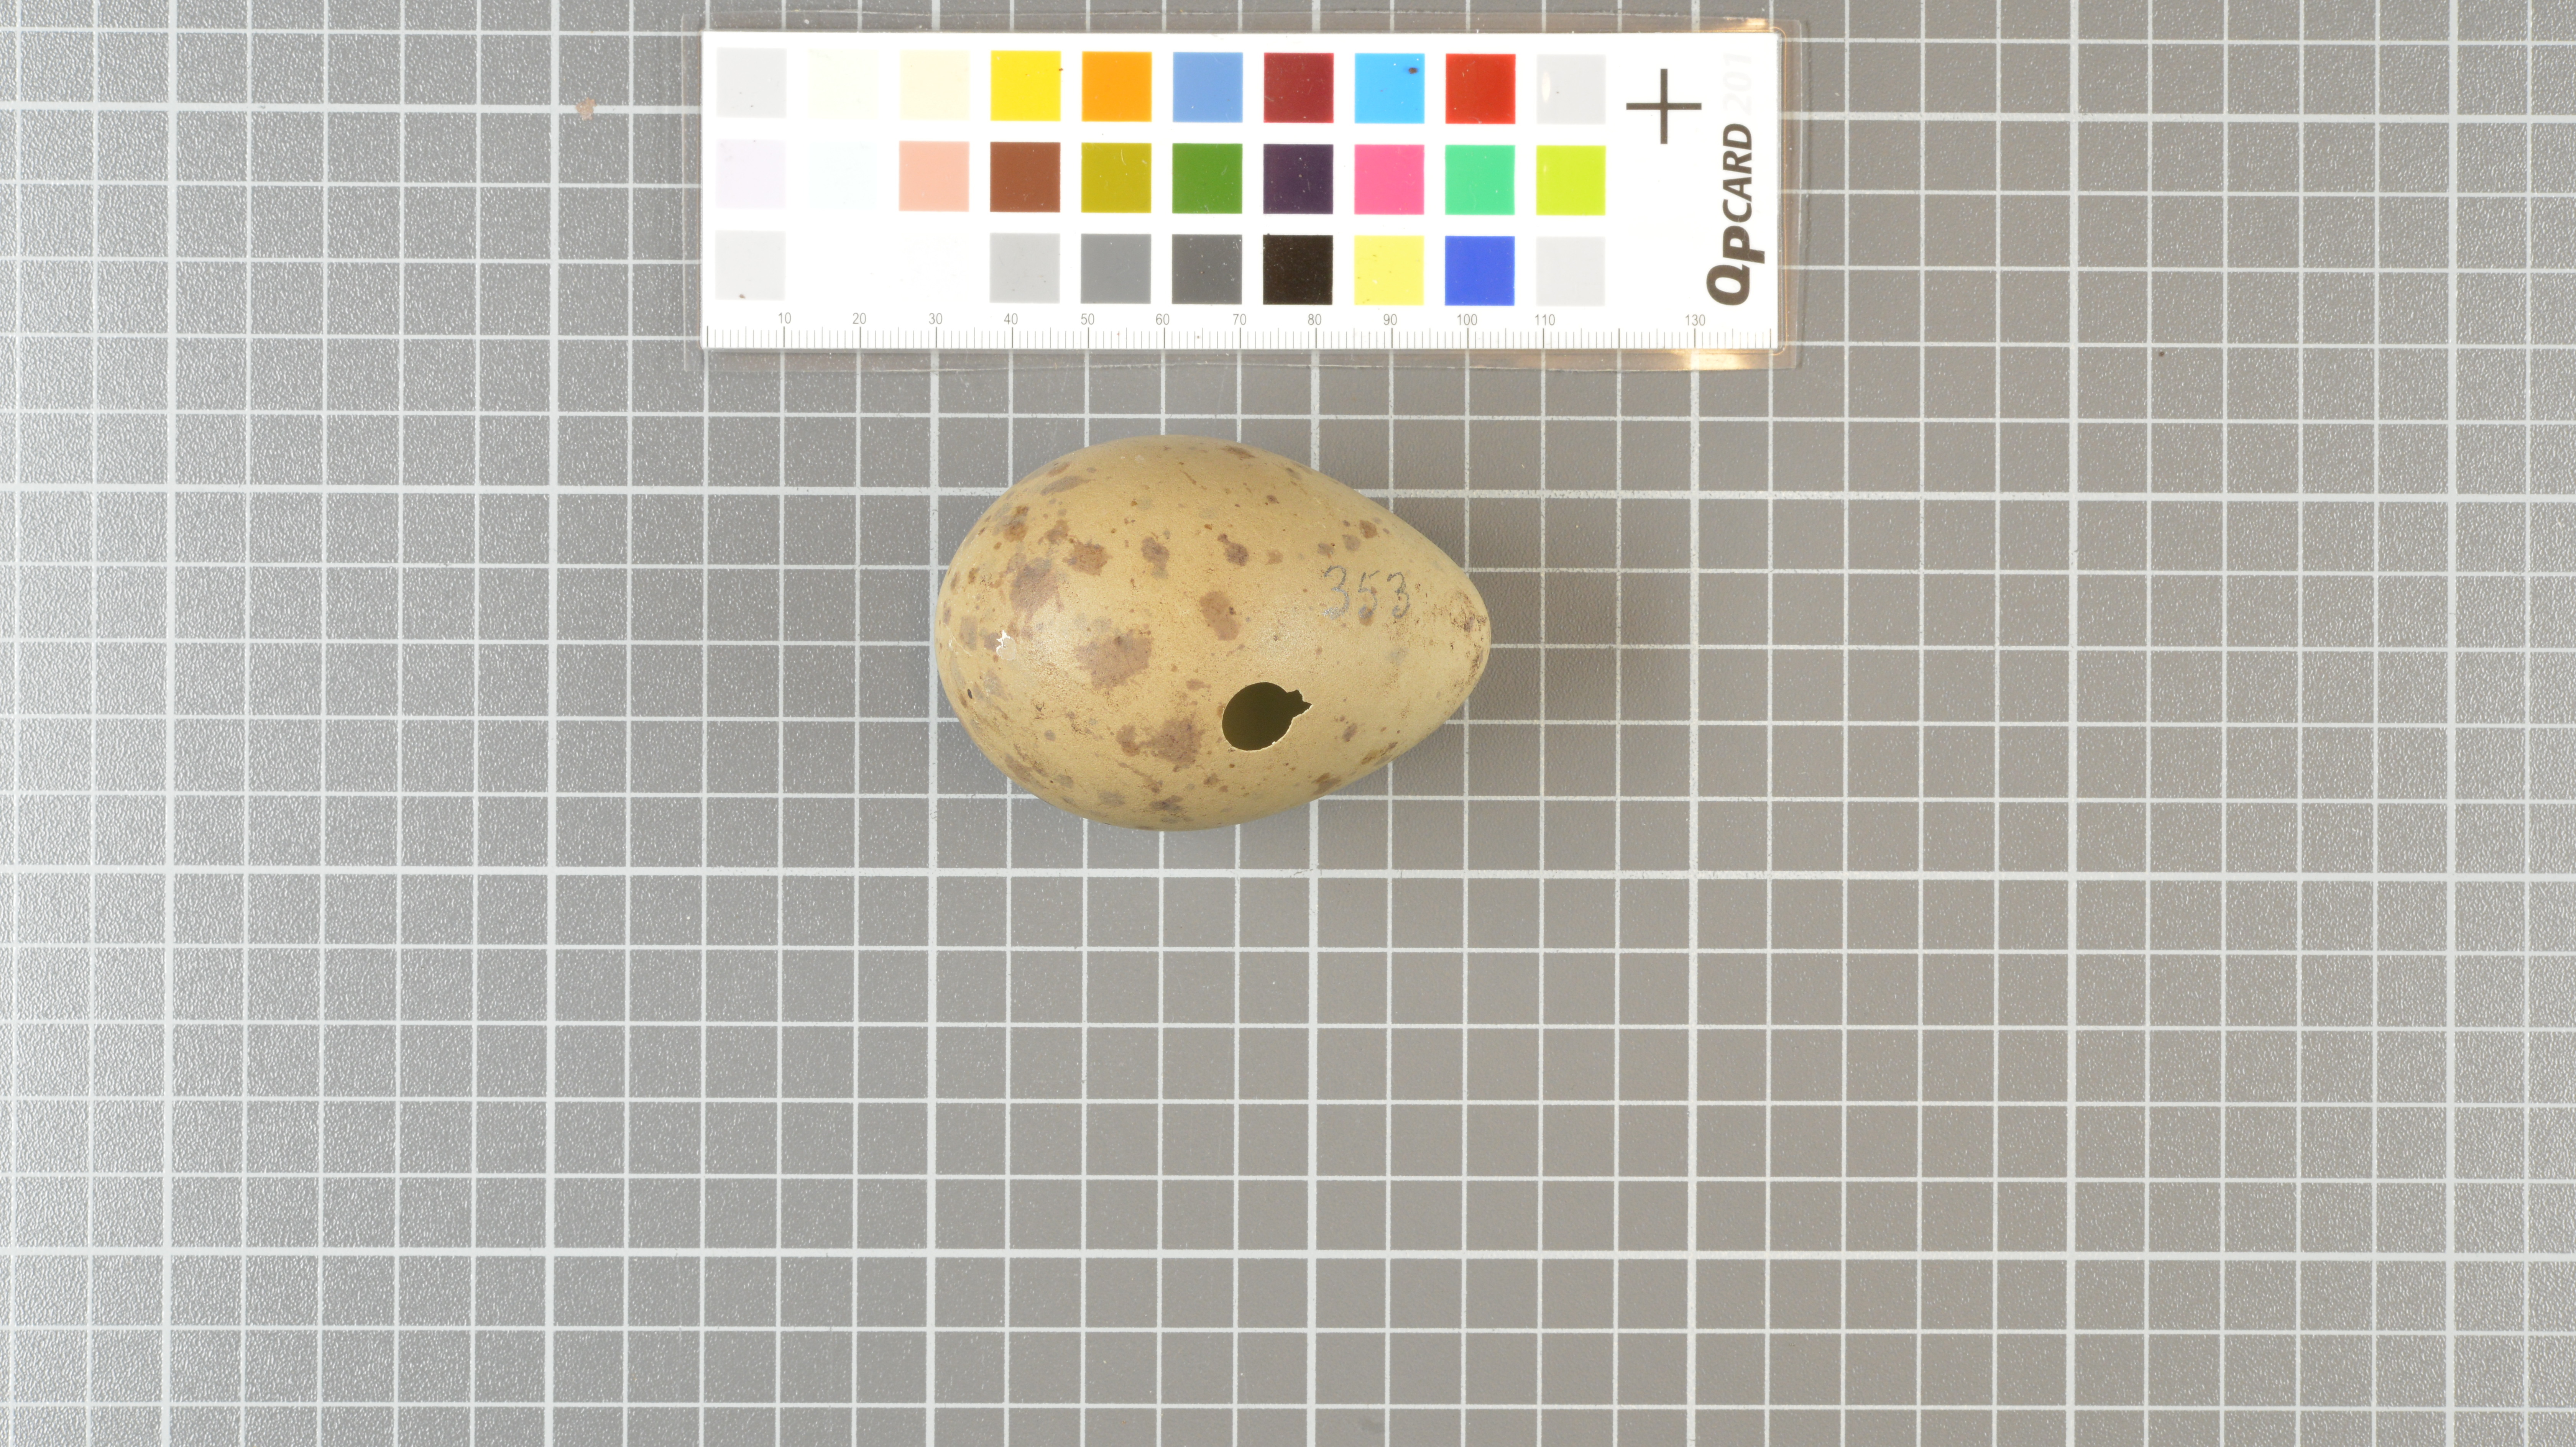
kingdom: Animalia
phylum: Chordata
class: Aves
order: Charadriiformes
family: Stercorariidae
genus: Stercorarius
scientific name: Stercorarius antarcticus
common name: Brown skua
